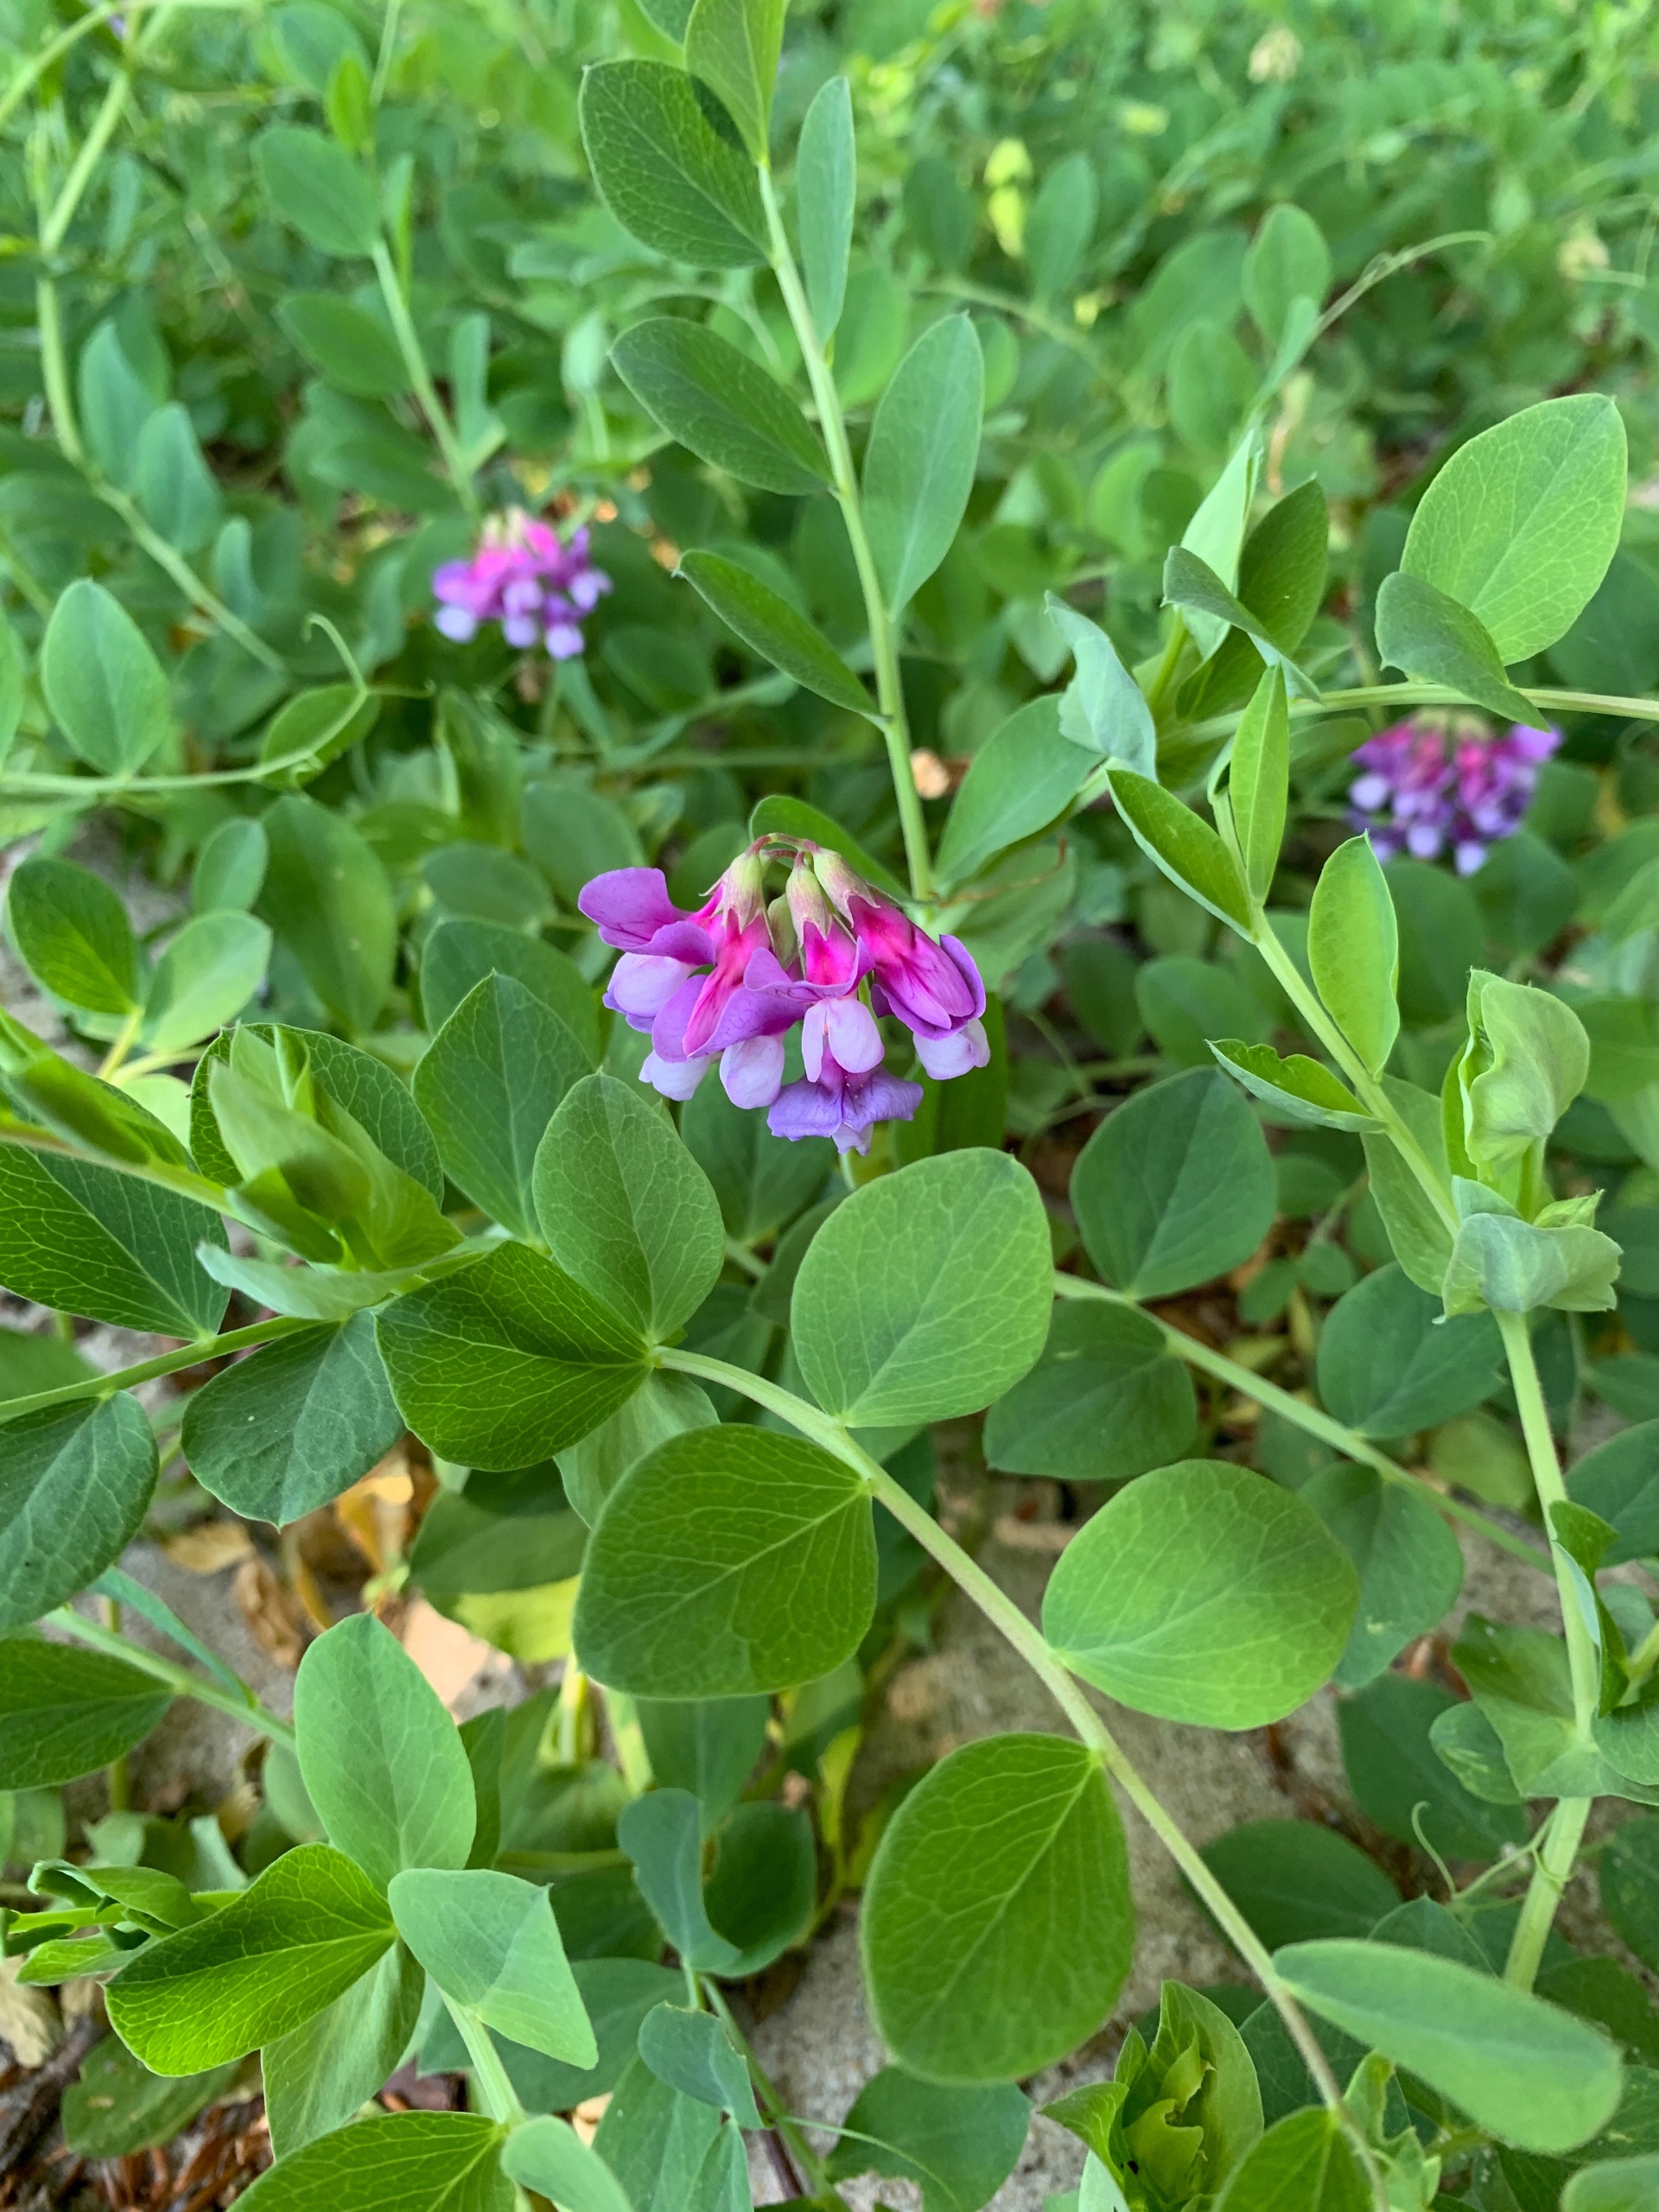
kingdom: Plantae
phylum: Tracheophyta
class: Magnoliopsida
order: Fabales
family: Fabaceae
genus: Lathyrus
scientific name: Lathyrus japonicus
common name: Strand-fladbælg
